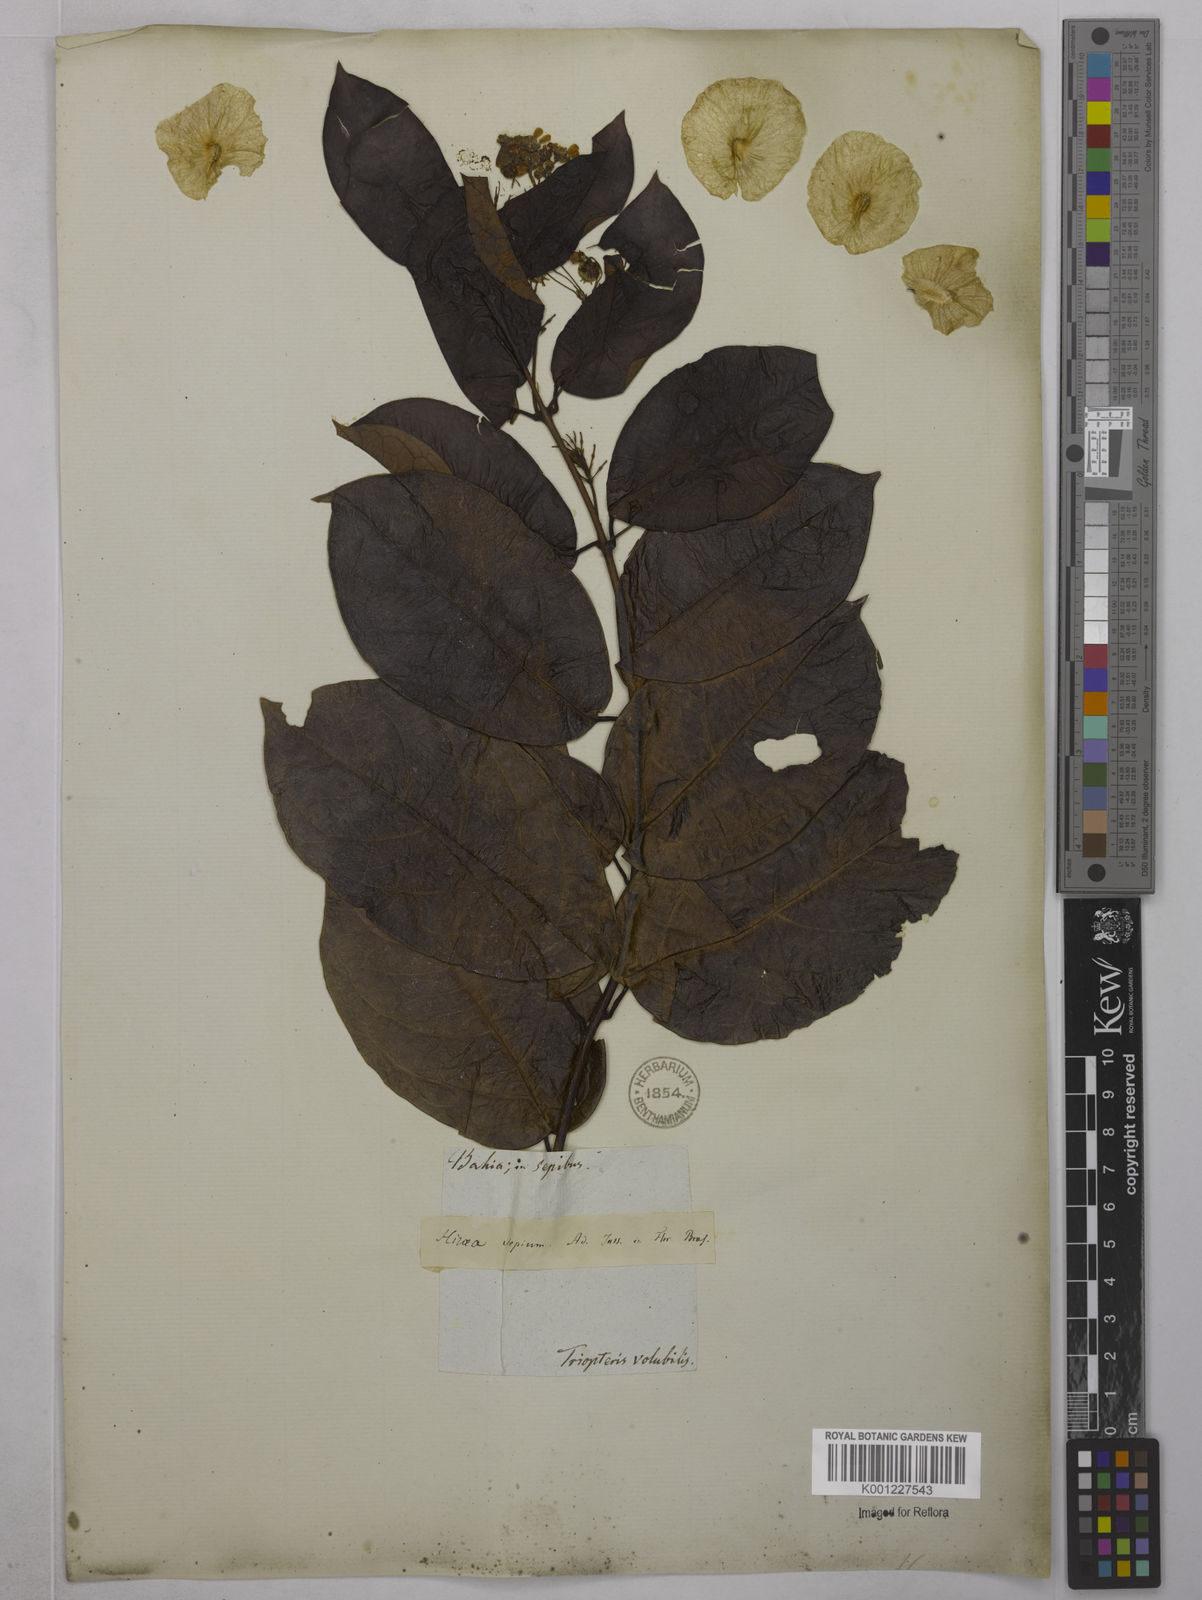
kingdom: Plantae
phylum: Tracheophyta
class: Magnoliopsida
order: Malpighiales
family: Malpighiaceae
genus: Mascagnia
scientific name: Mascagnia sepium
